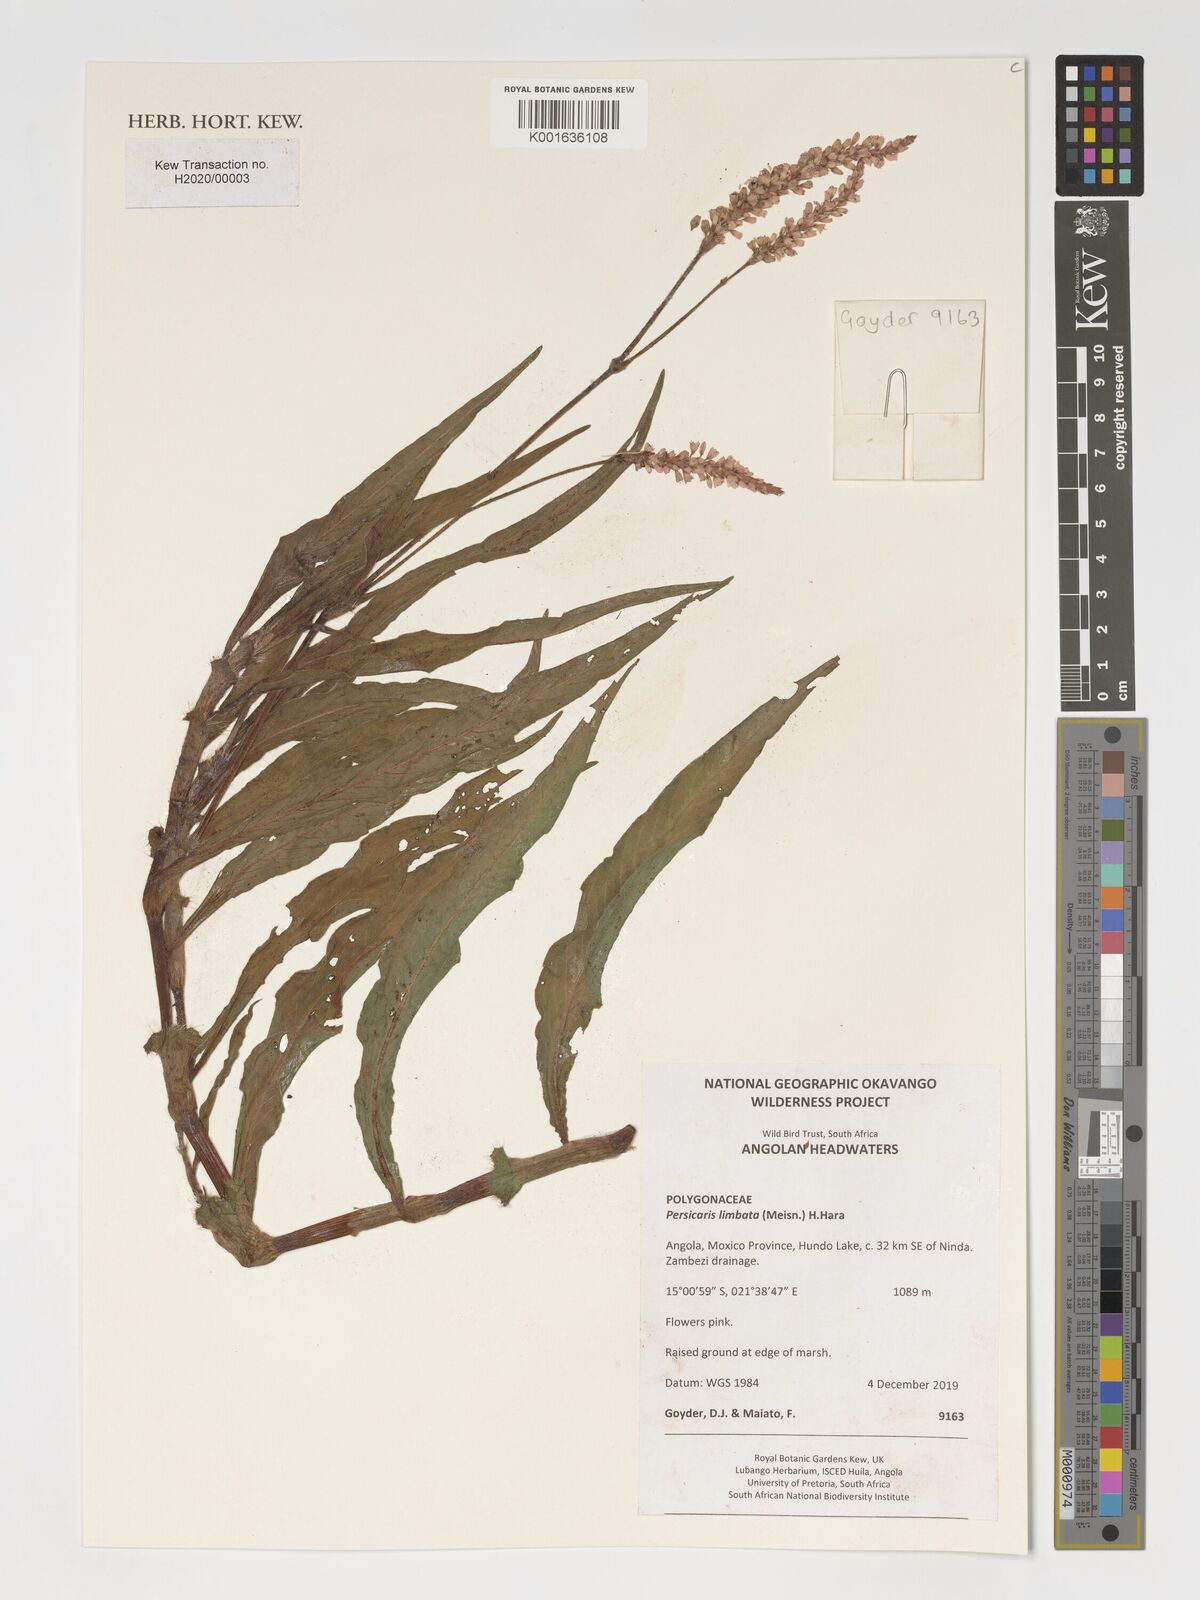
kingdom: Plantae
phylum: Tracheophyta
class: Magnoliopsida
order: Caryophyllales
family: Polygonaceae
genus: Persicaria
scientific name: Persicaria limbata
